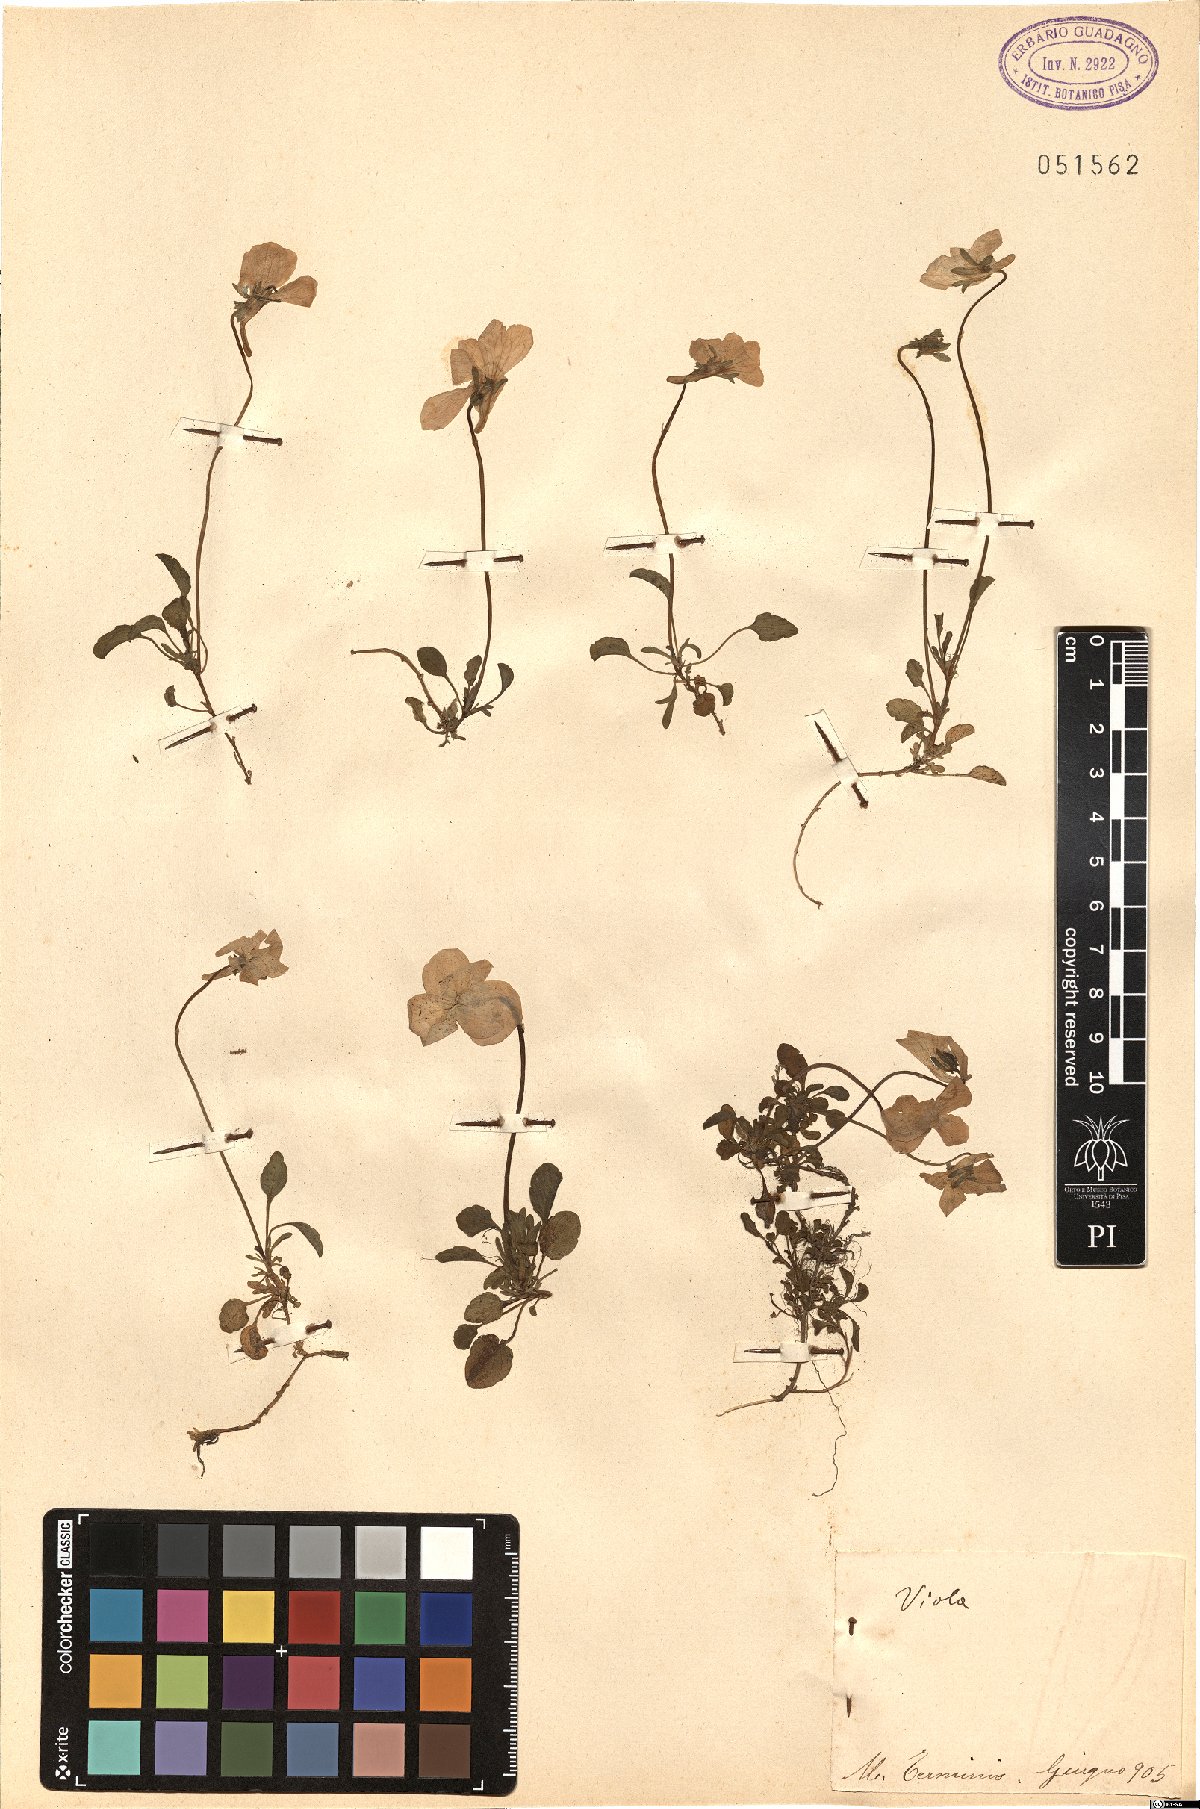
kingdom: Plantae
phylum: Tracheophyta
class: Magnoliopsida
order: Malpighiales
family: Violaceae
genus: Viola
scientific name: Viola
